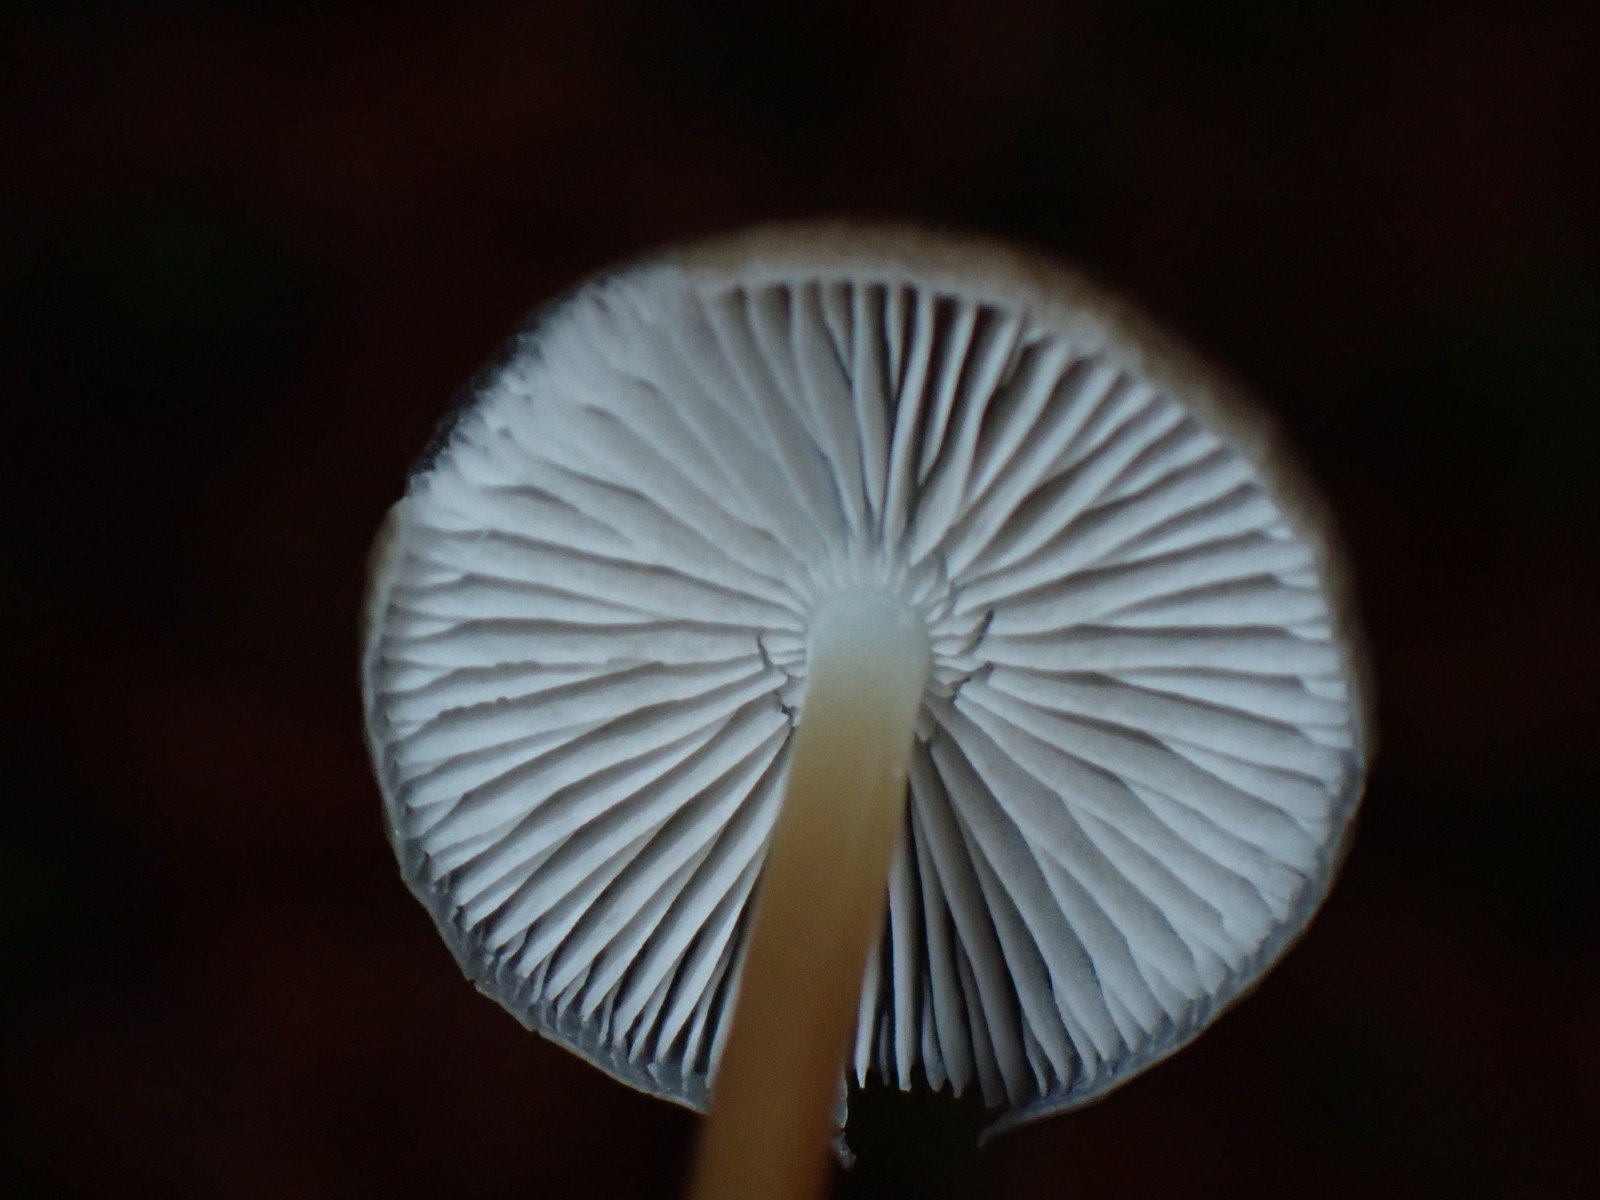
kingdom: Fungi
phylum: Basidiomycota
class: Agaricomycetes
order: Agaricales
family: Physalacriaceae
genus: Strobilurus
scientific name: Strobilurus esculentus
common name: gran-koglehat
